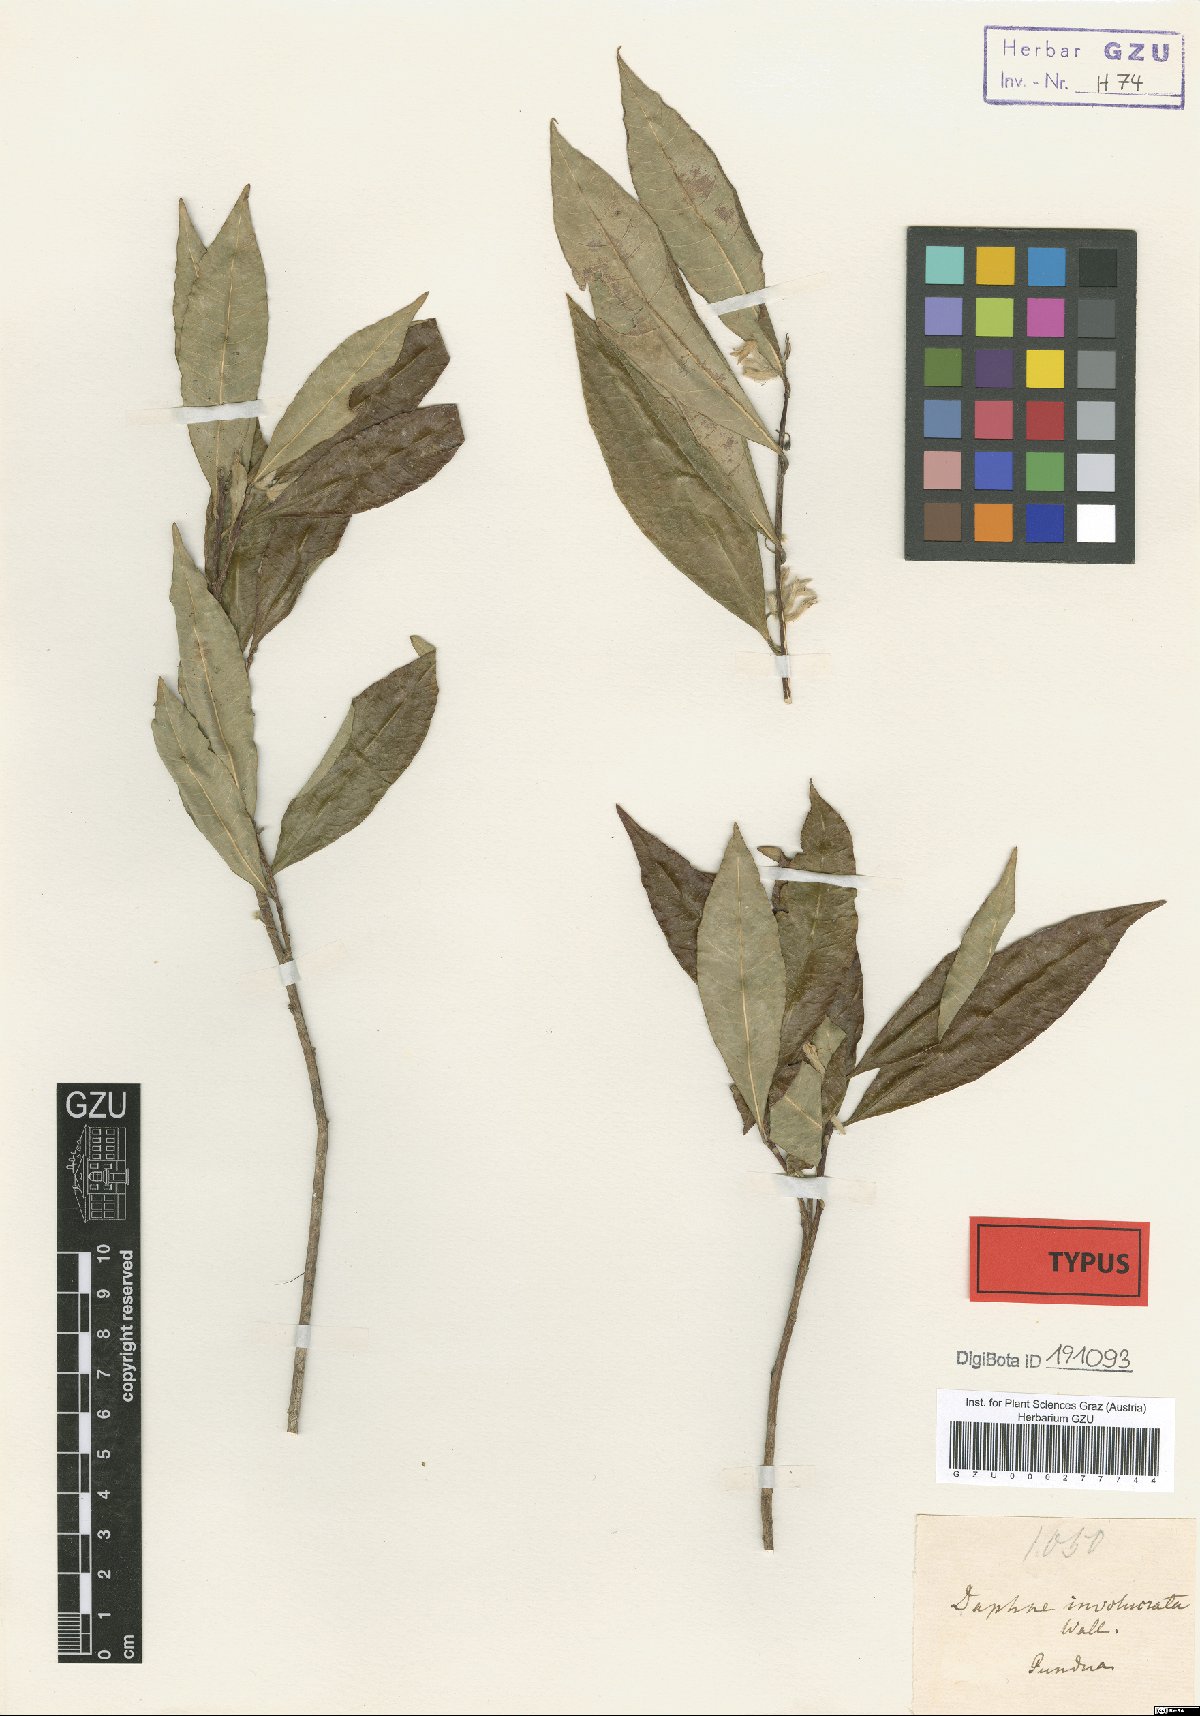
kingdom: Plantae
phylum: Tracheophyta
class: Magnoliopsida
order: Malvales
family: Thymelaeaceae
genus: Daphne
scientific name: Daphne composita
